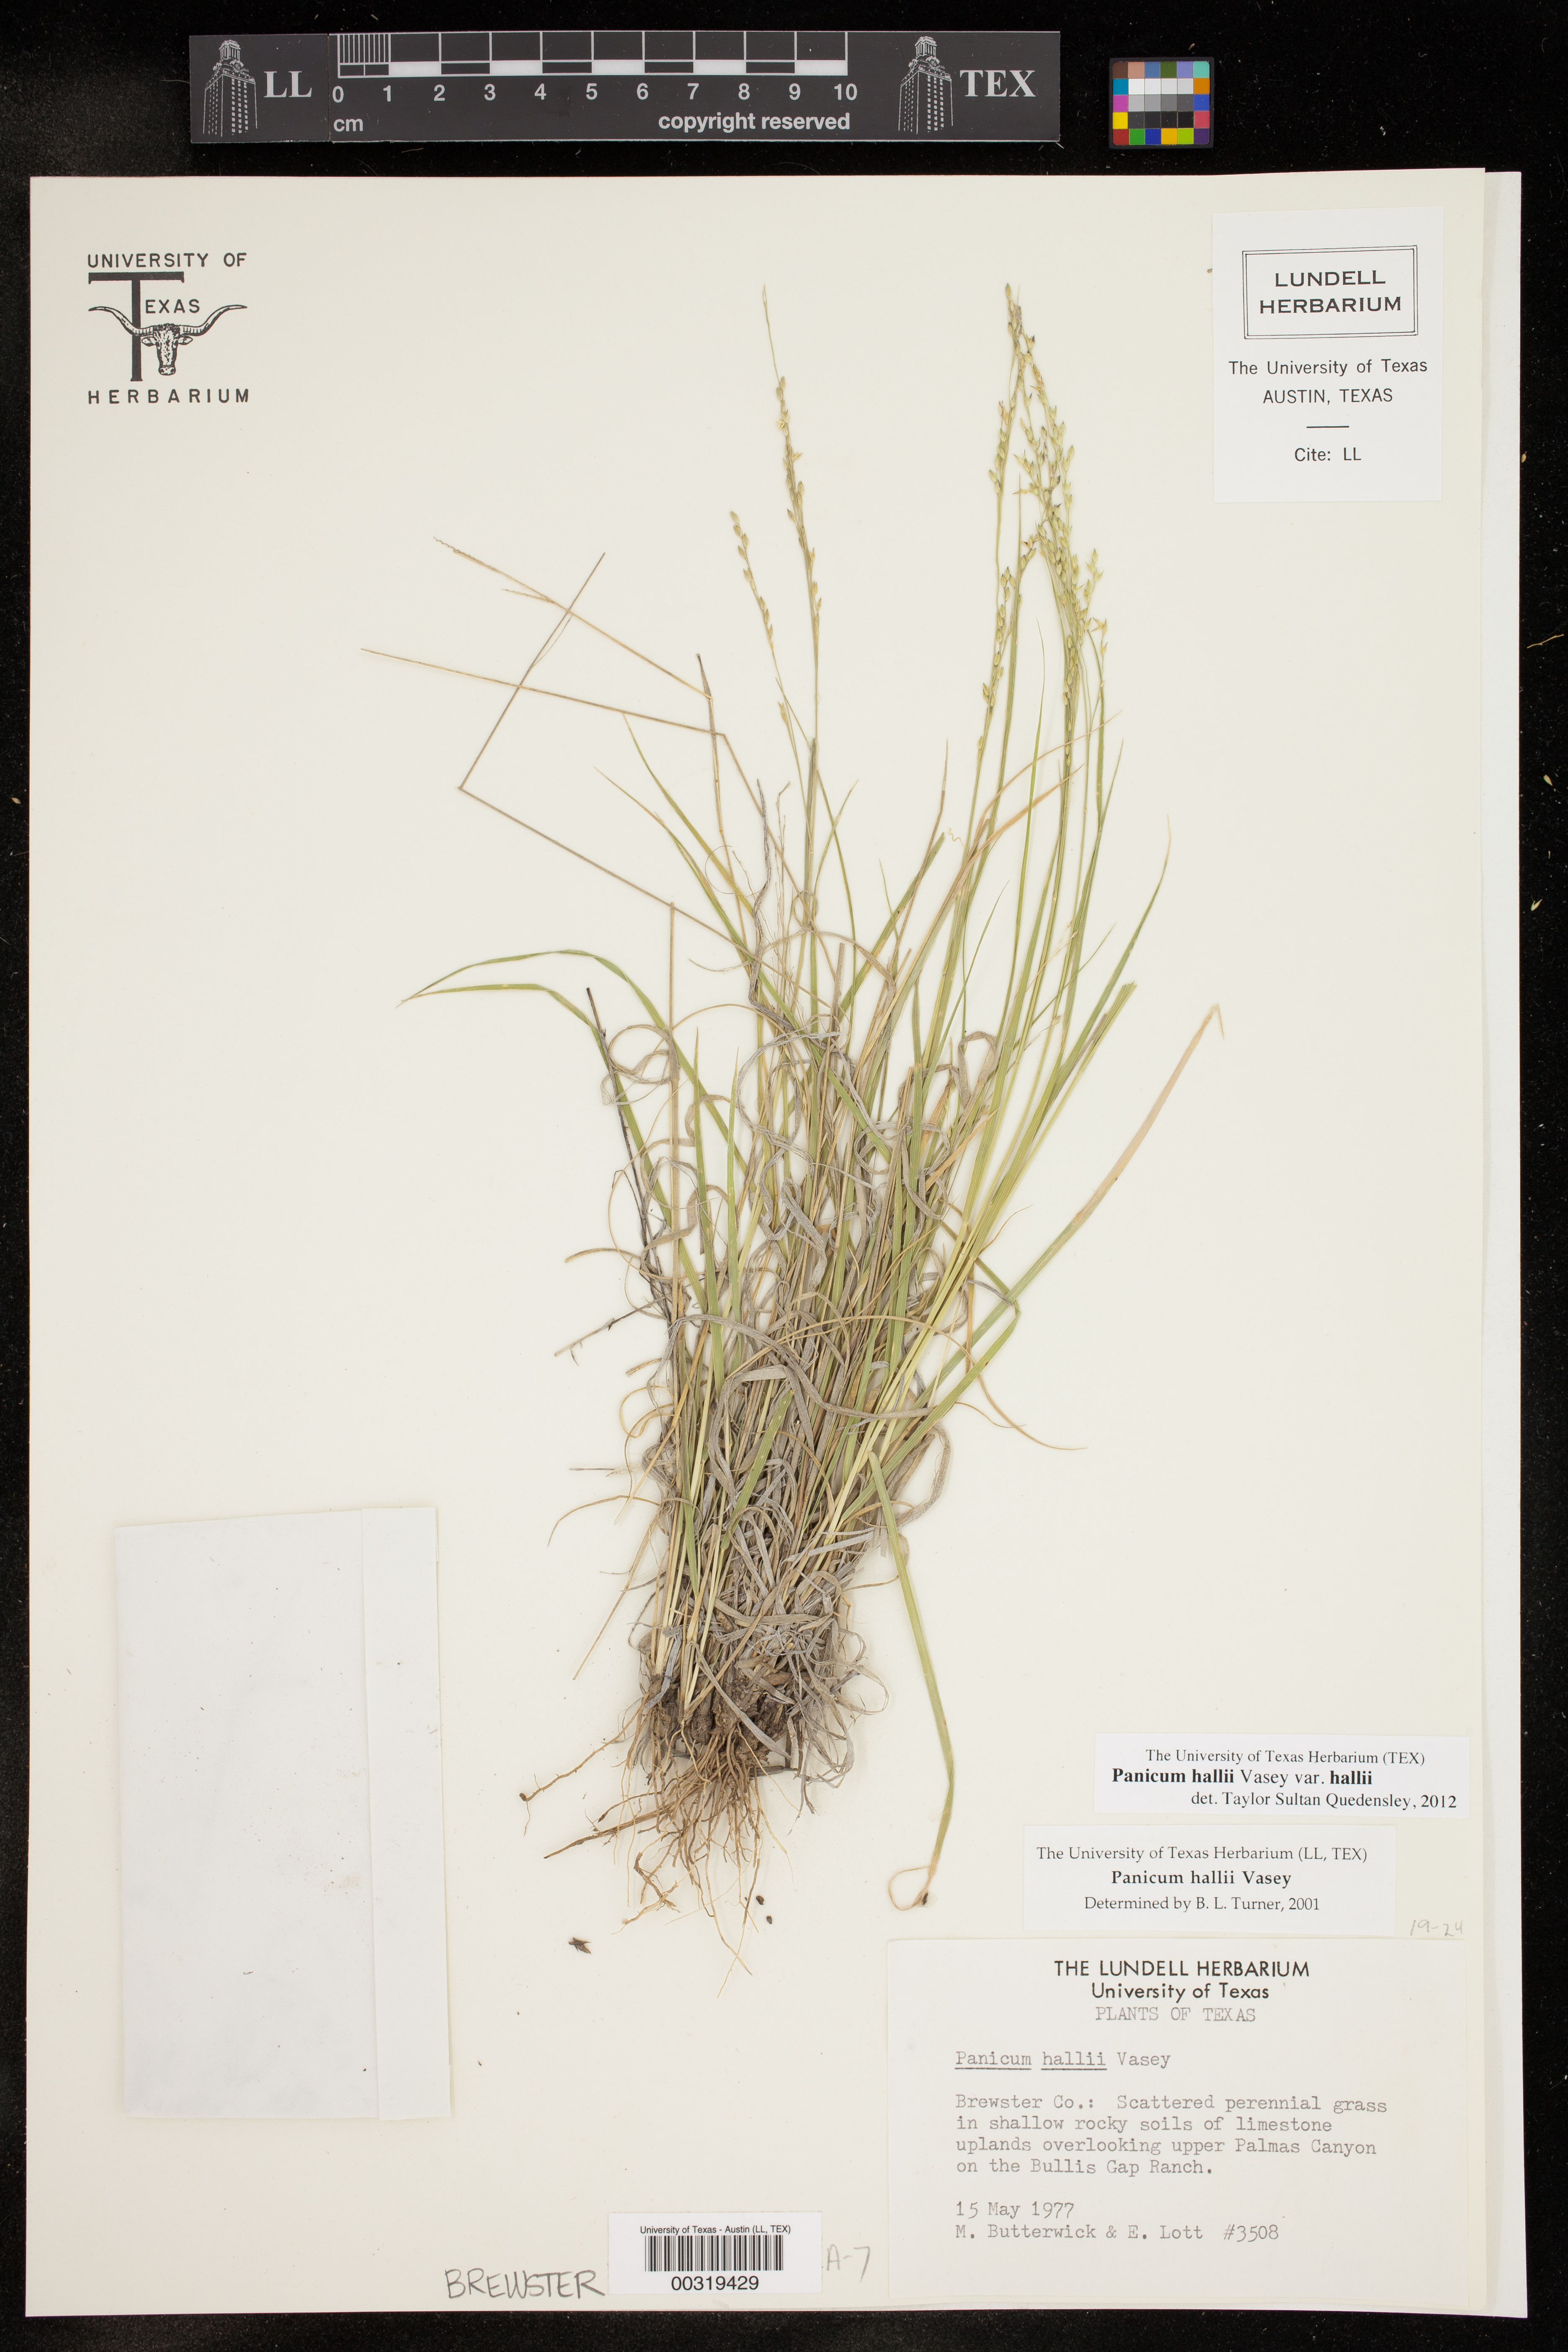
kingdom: Plantae
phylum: Tracheophyta
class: Liliopsida
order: Poales
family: Poaceae
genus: Panicum
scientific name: Panicum hallii
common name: Hall's witchgrass
